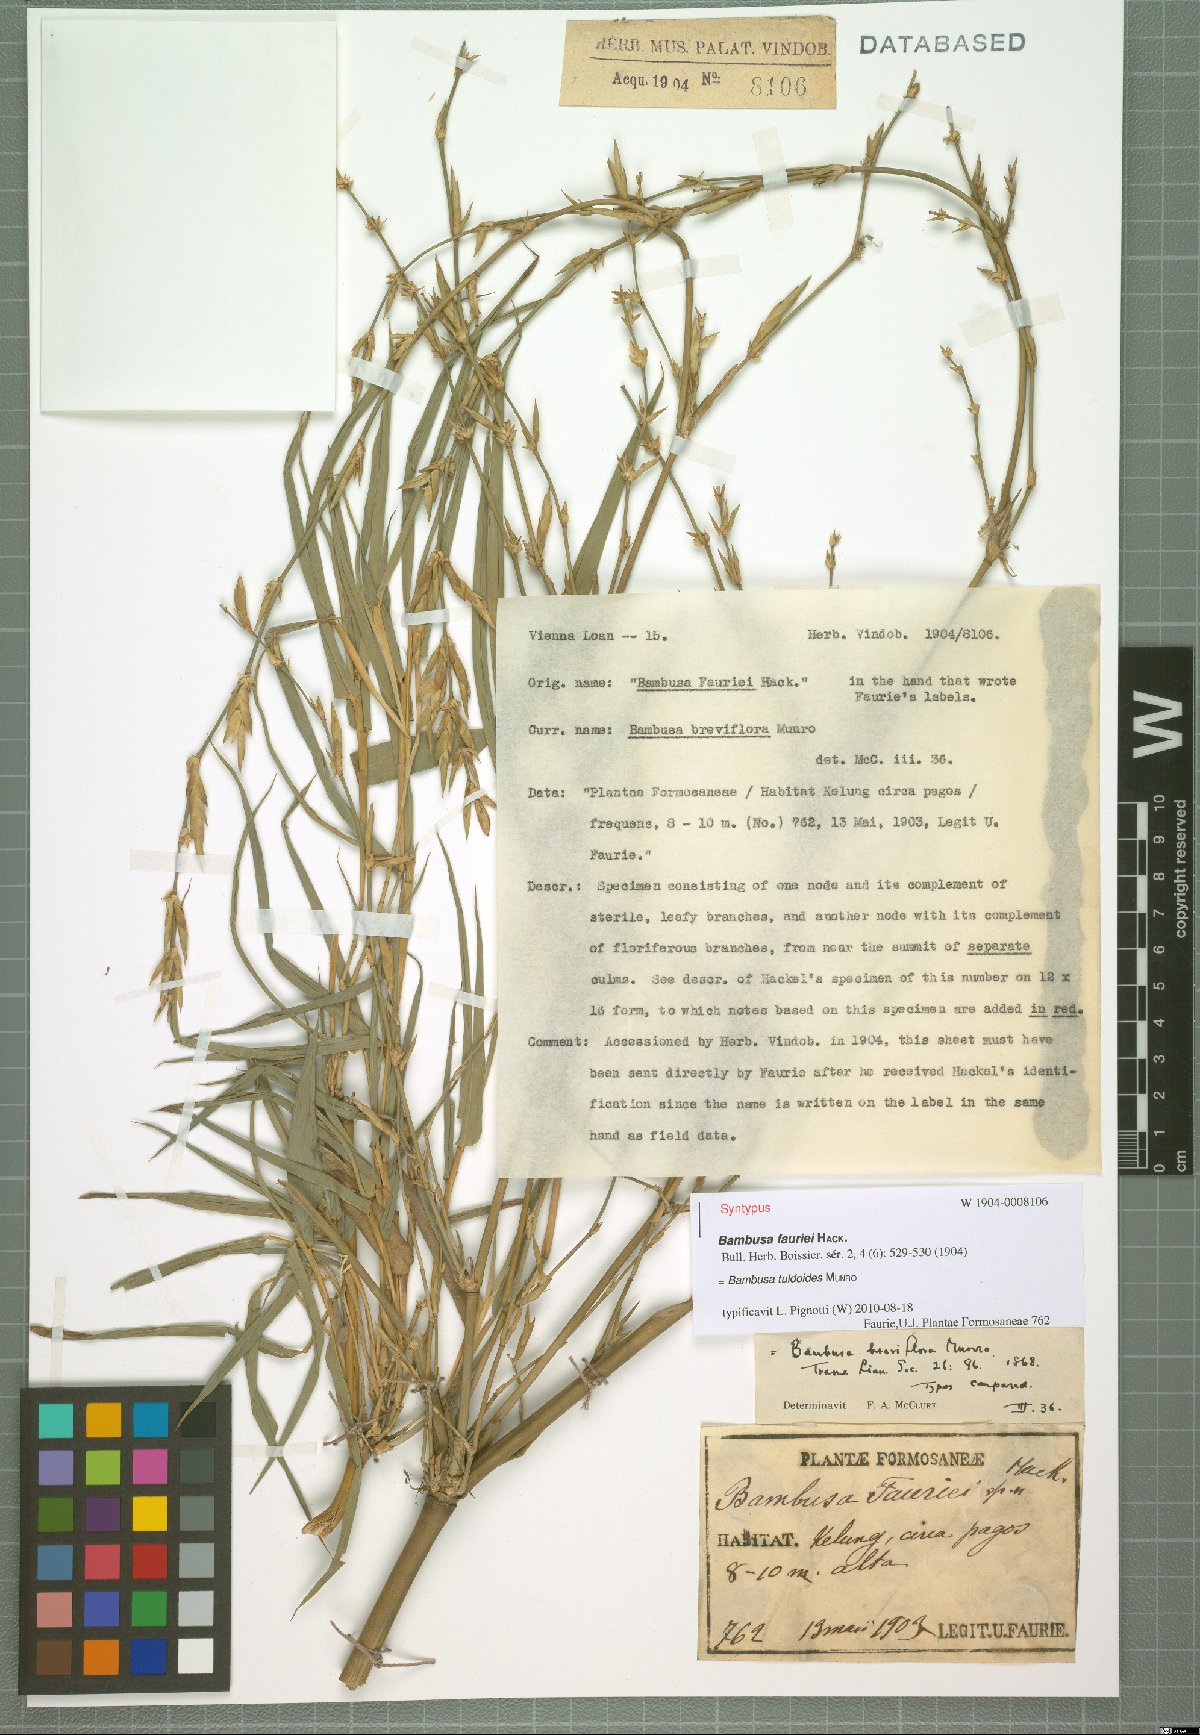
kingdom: Plantae
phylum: Tracheophyta
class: Liliopsida
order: Poales
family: Poaceae
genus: Bambusa
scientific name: Bambusa tuldoides
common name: Verdant bamboo
